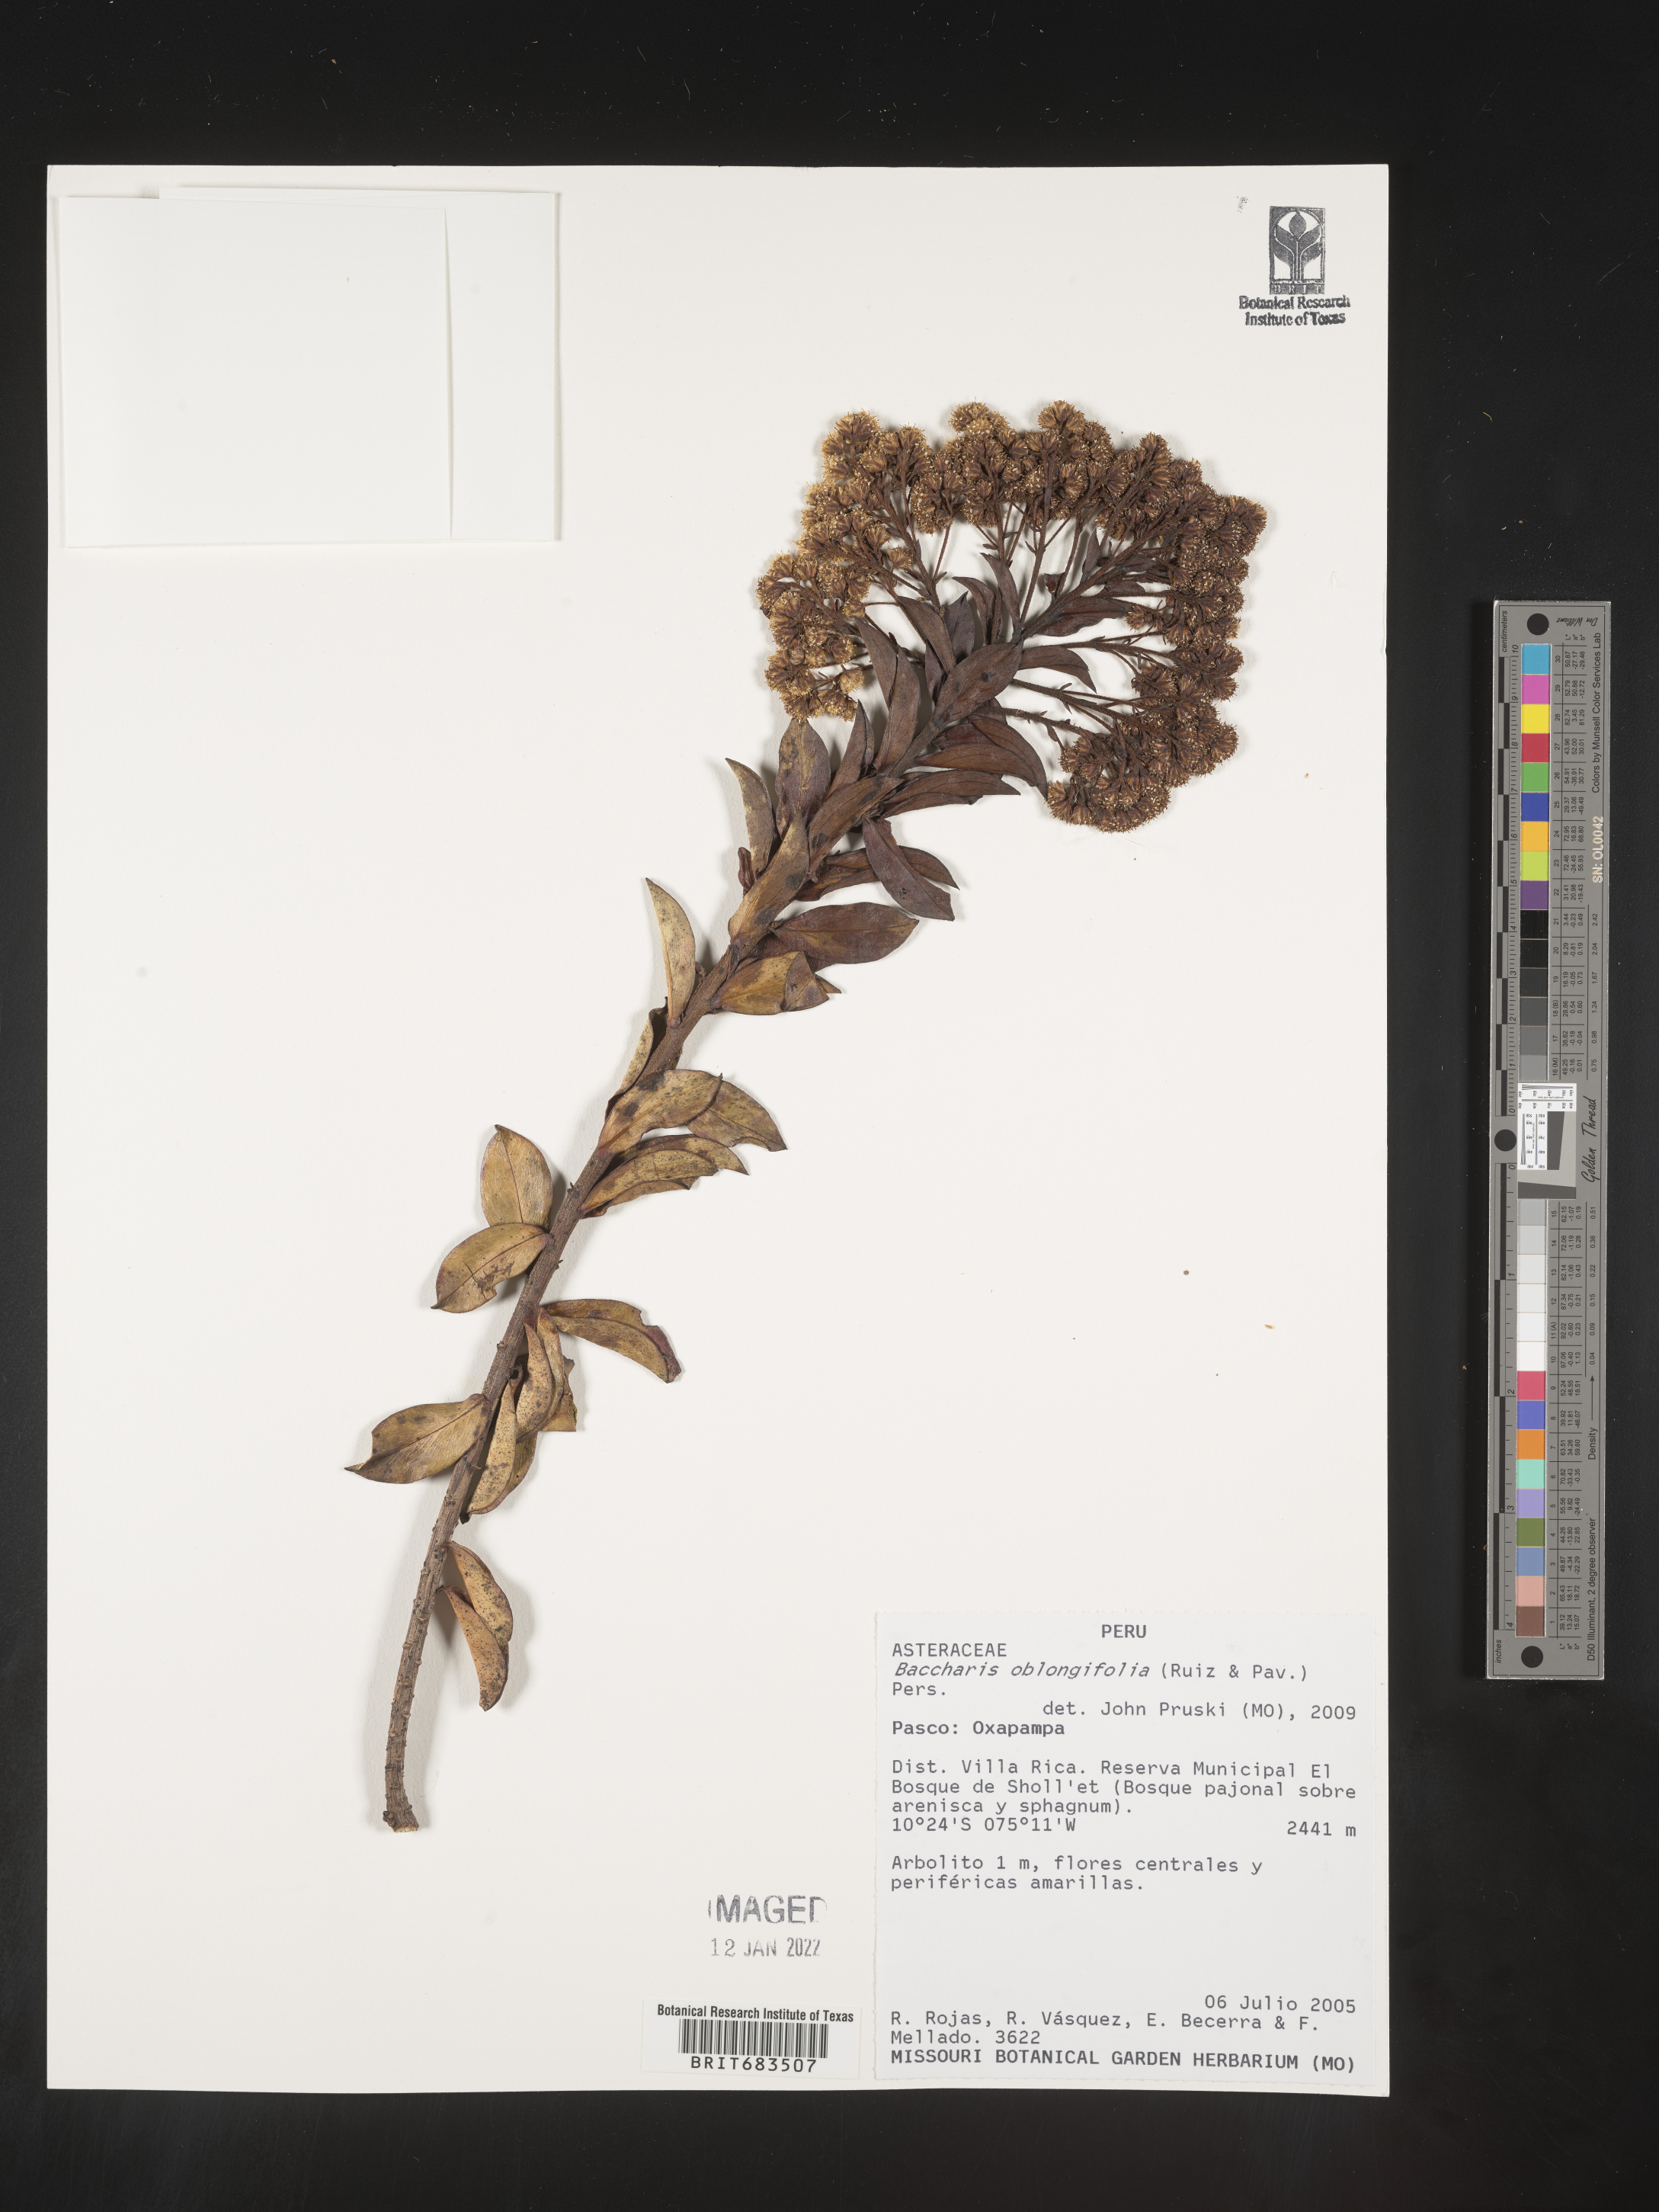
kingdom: Plantae
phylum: Tracheophyta
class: Magnoliopsida
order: Asterales
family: Asteraceae
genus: Baccharis
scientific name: Baccharis
